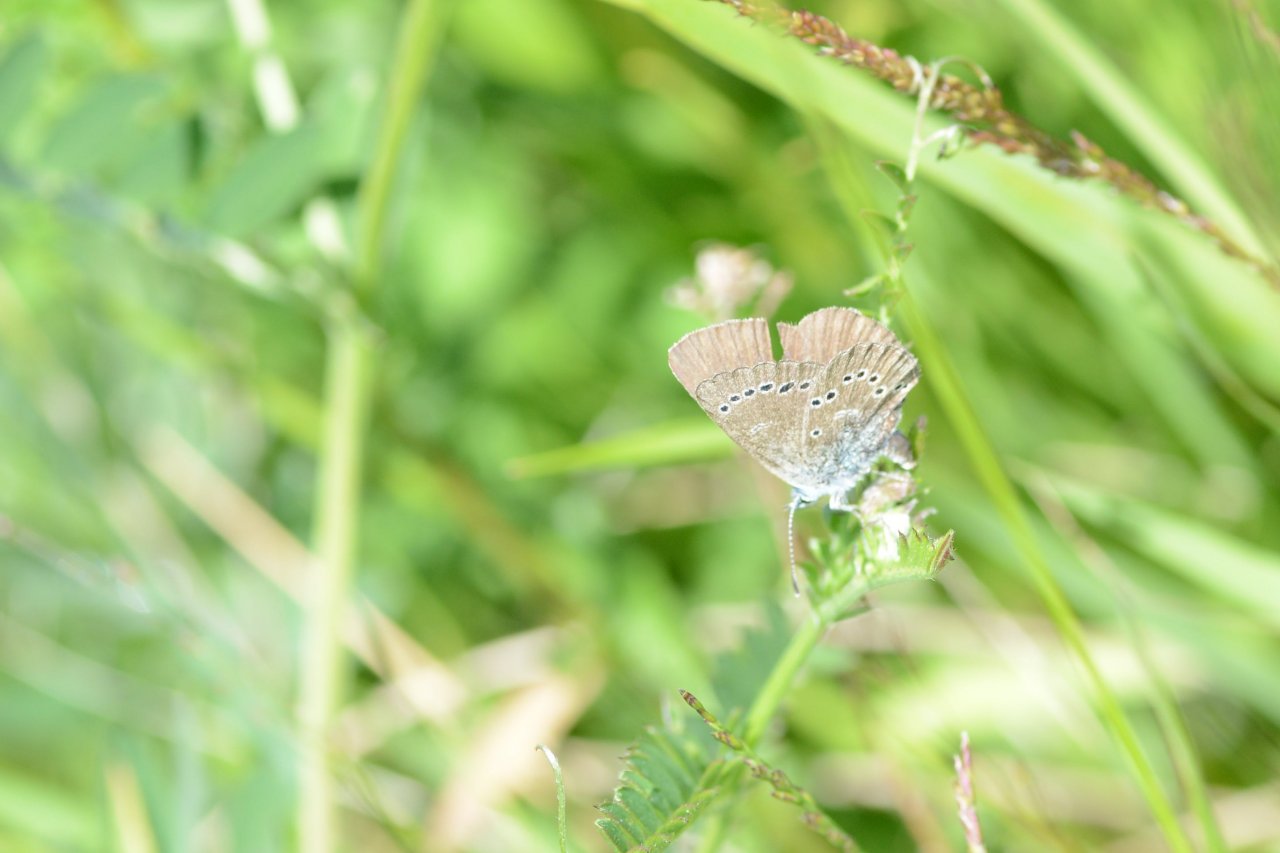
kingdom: Animalia
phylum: Arthropoda
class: Insecta
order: Lepidoptera
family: Lycaenidae
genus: Glaucopsyche
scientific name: Glaucopsyche lygdamus
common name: Silvery Blue
